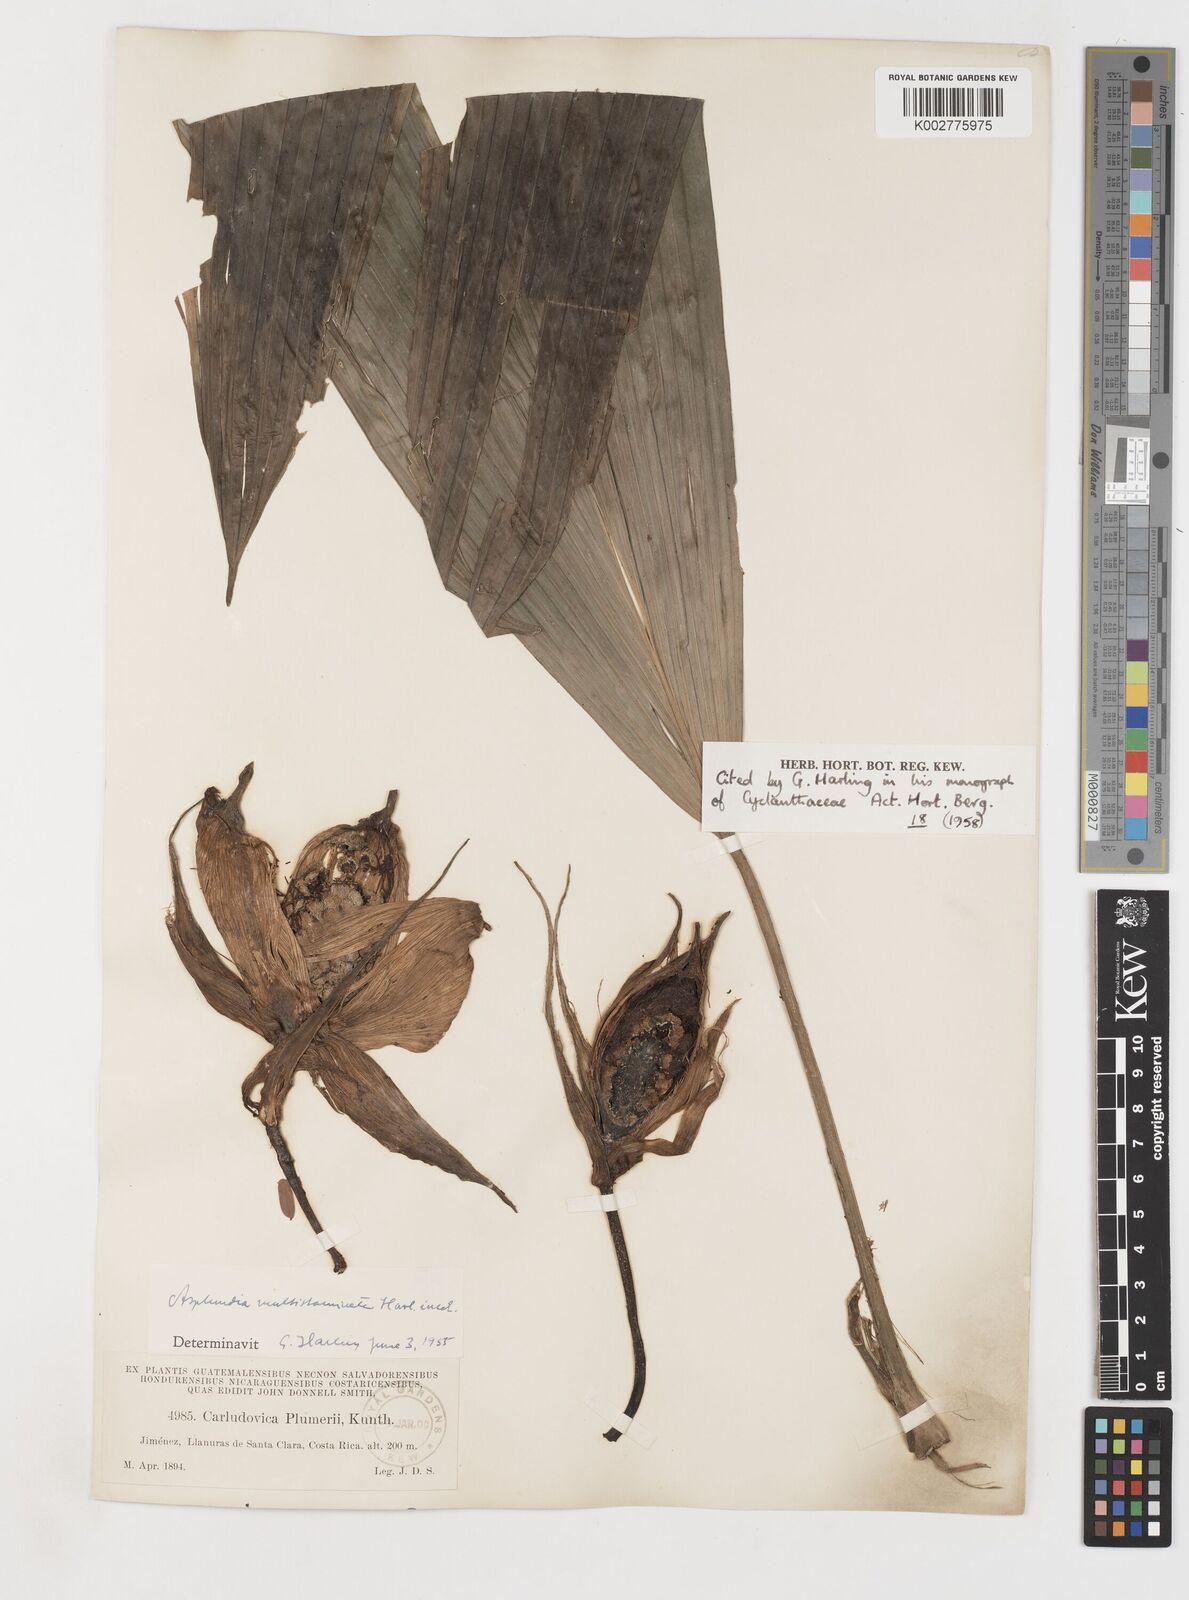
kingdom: Plantae
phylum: Tracheophyta
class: Liliopsida
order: Pandanales
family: Cyclanthaceae
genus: Asplundia
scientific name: Asplundia multistaminata
